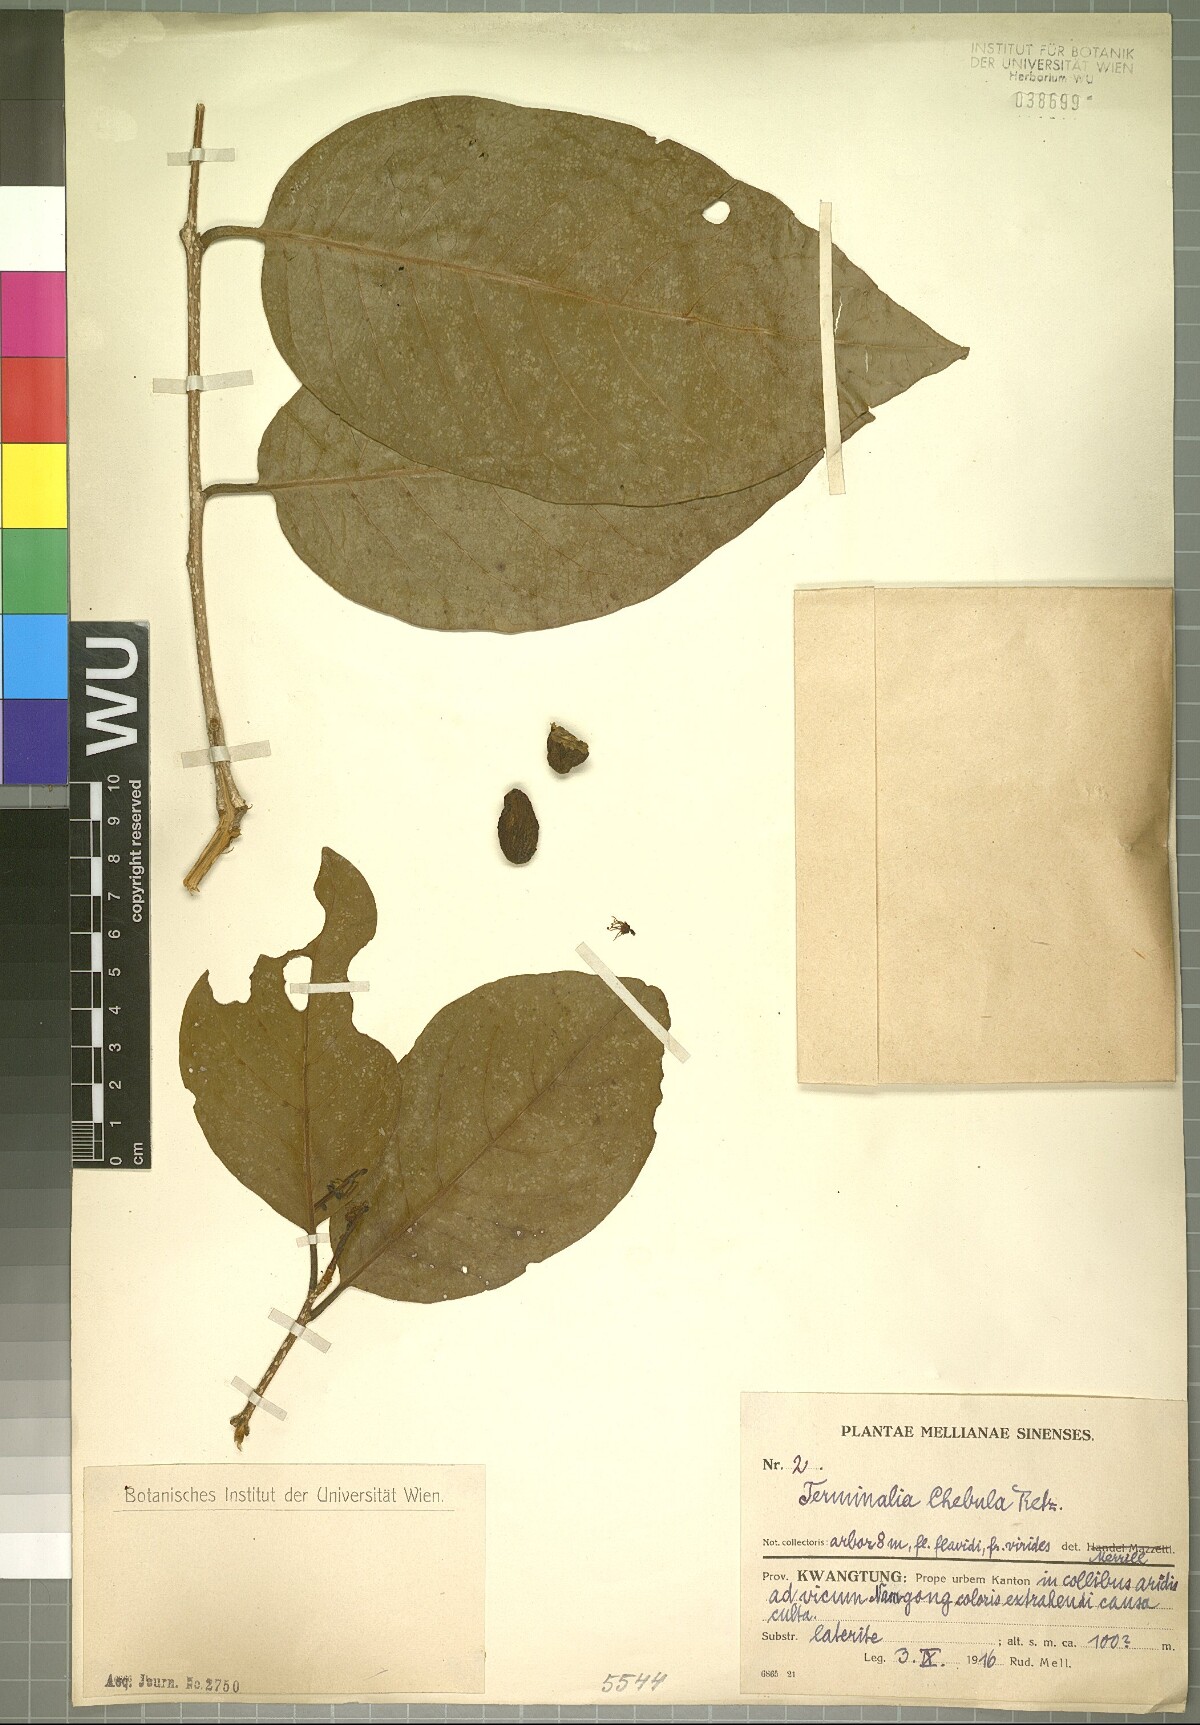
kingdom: Plantae
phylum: Tracheophyta
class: Magnoliopsida
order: Myrtales
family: Combretaceae
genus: Terminalia
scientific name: Terminalia chebula
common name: Myrobalan
